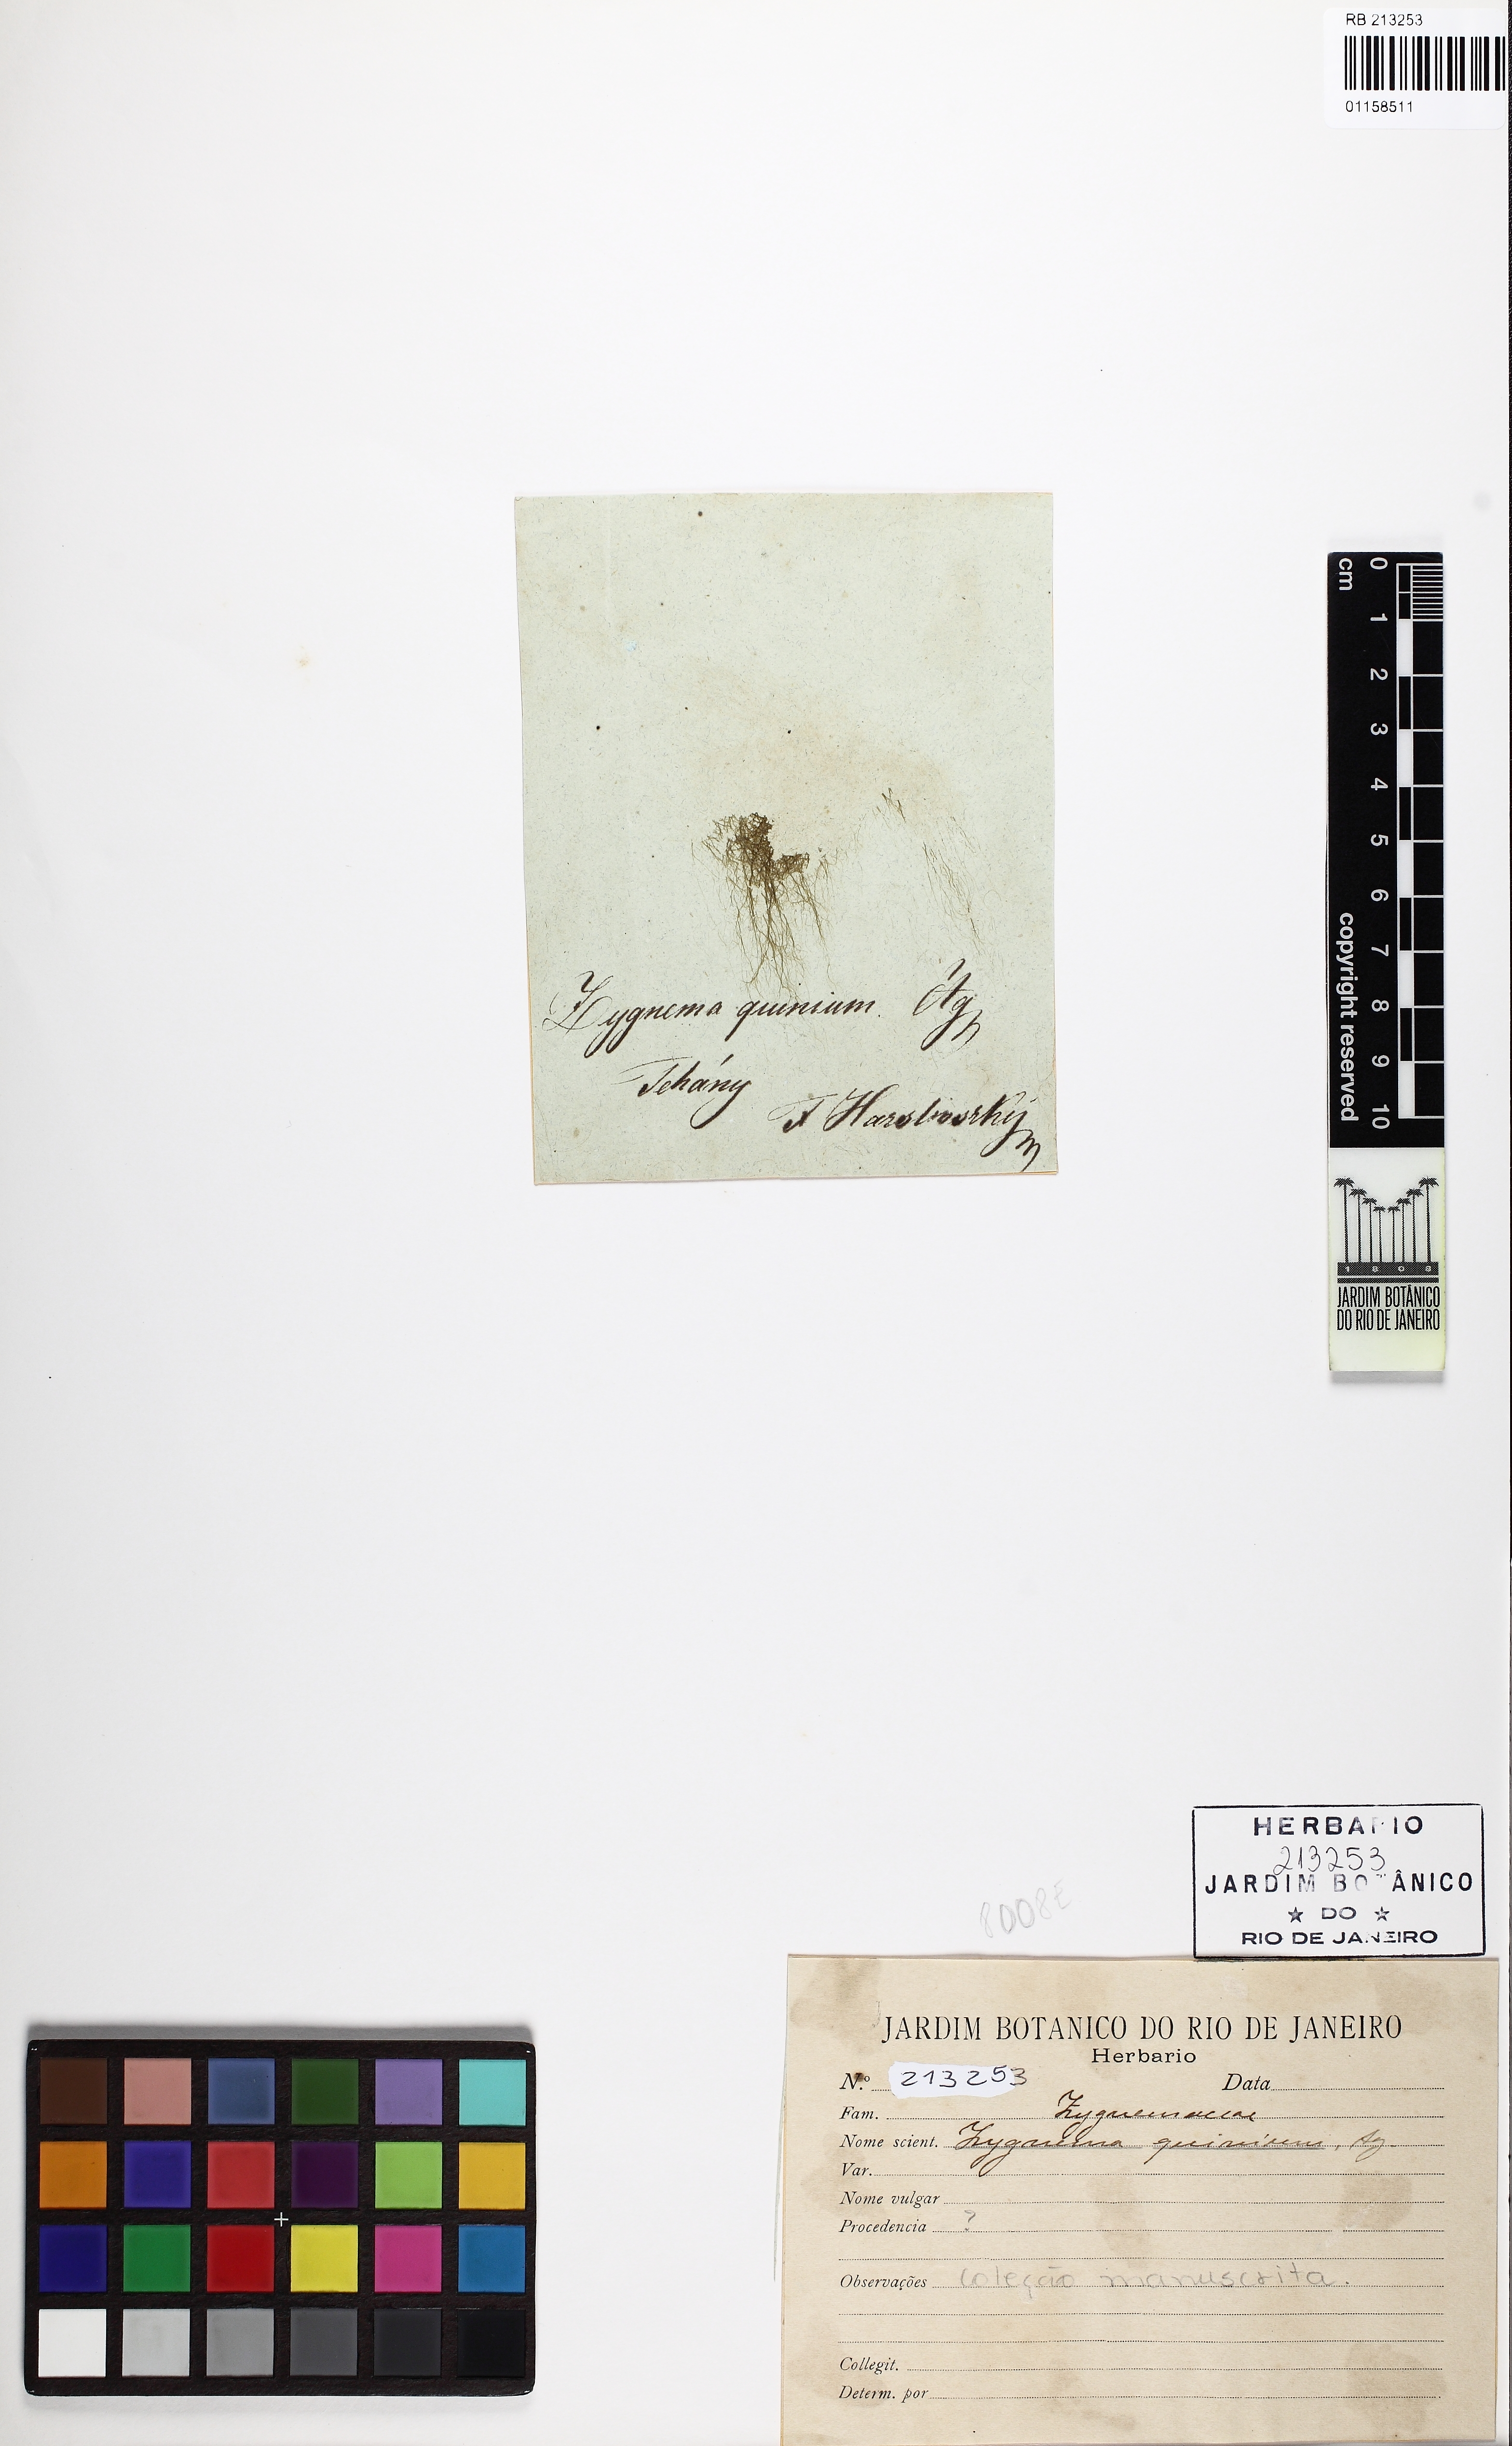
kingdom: Plantae
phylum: Charophyta
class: Zygnematophyceae
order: Zygnematales
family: Zygnemataceae
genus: Zygnema
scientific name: Zygnema
